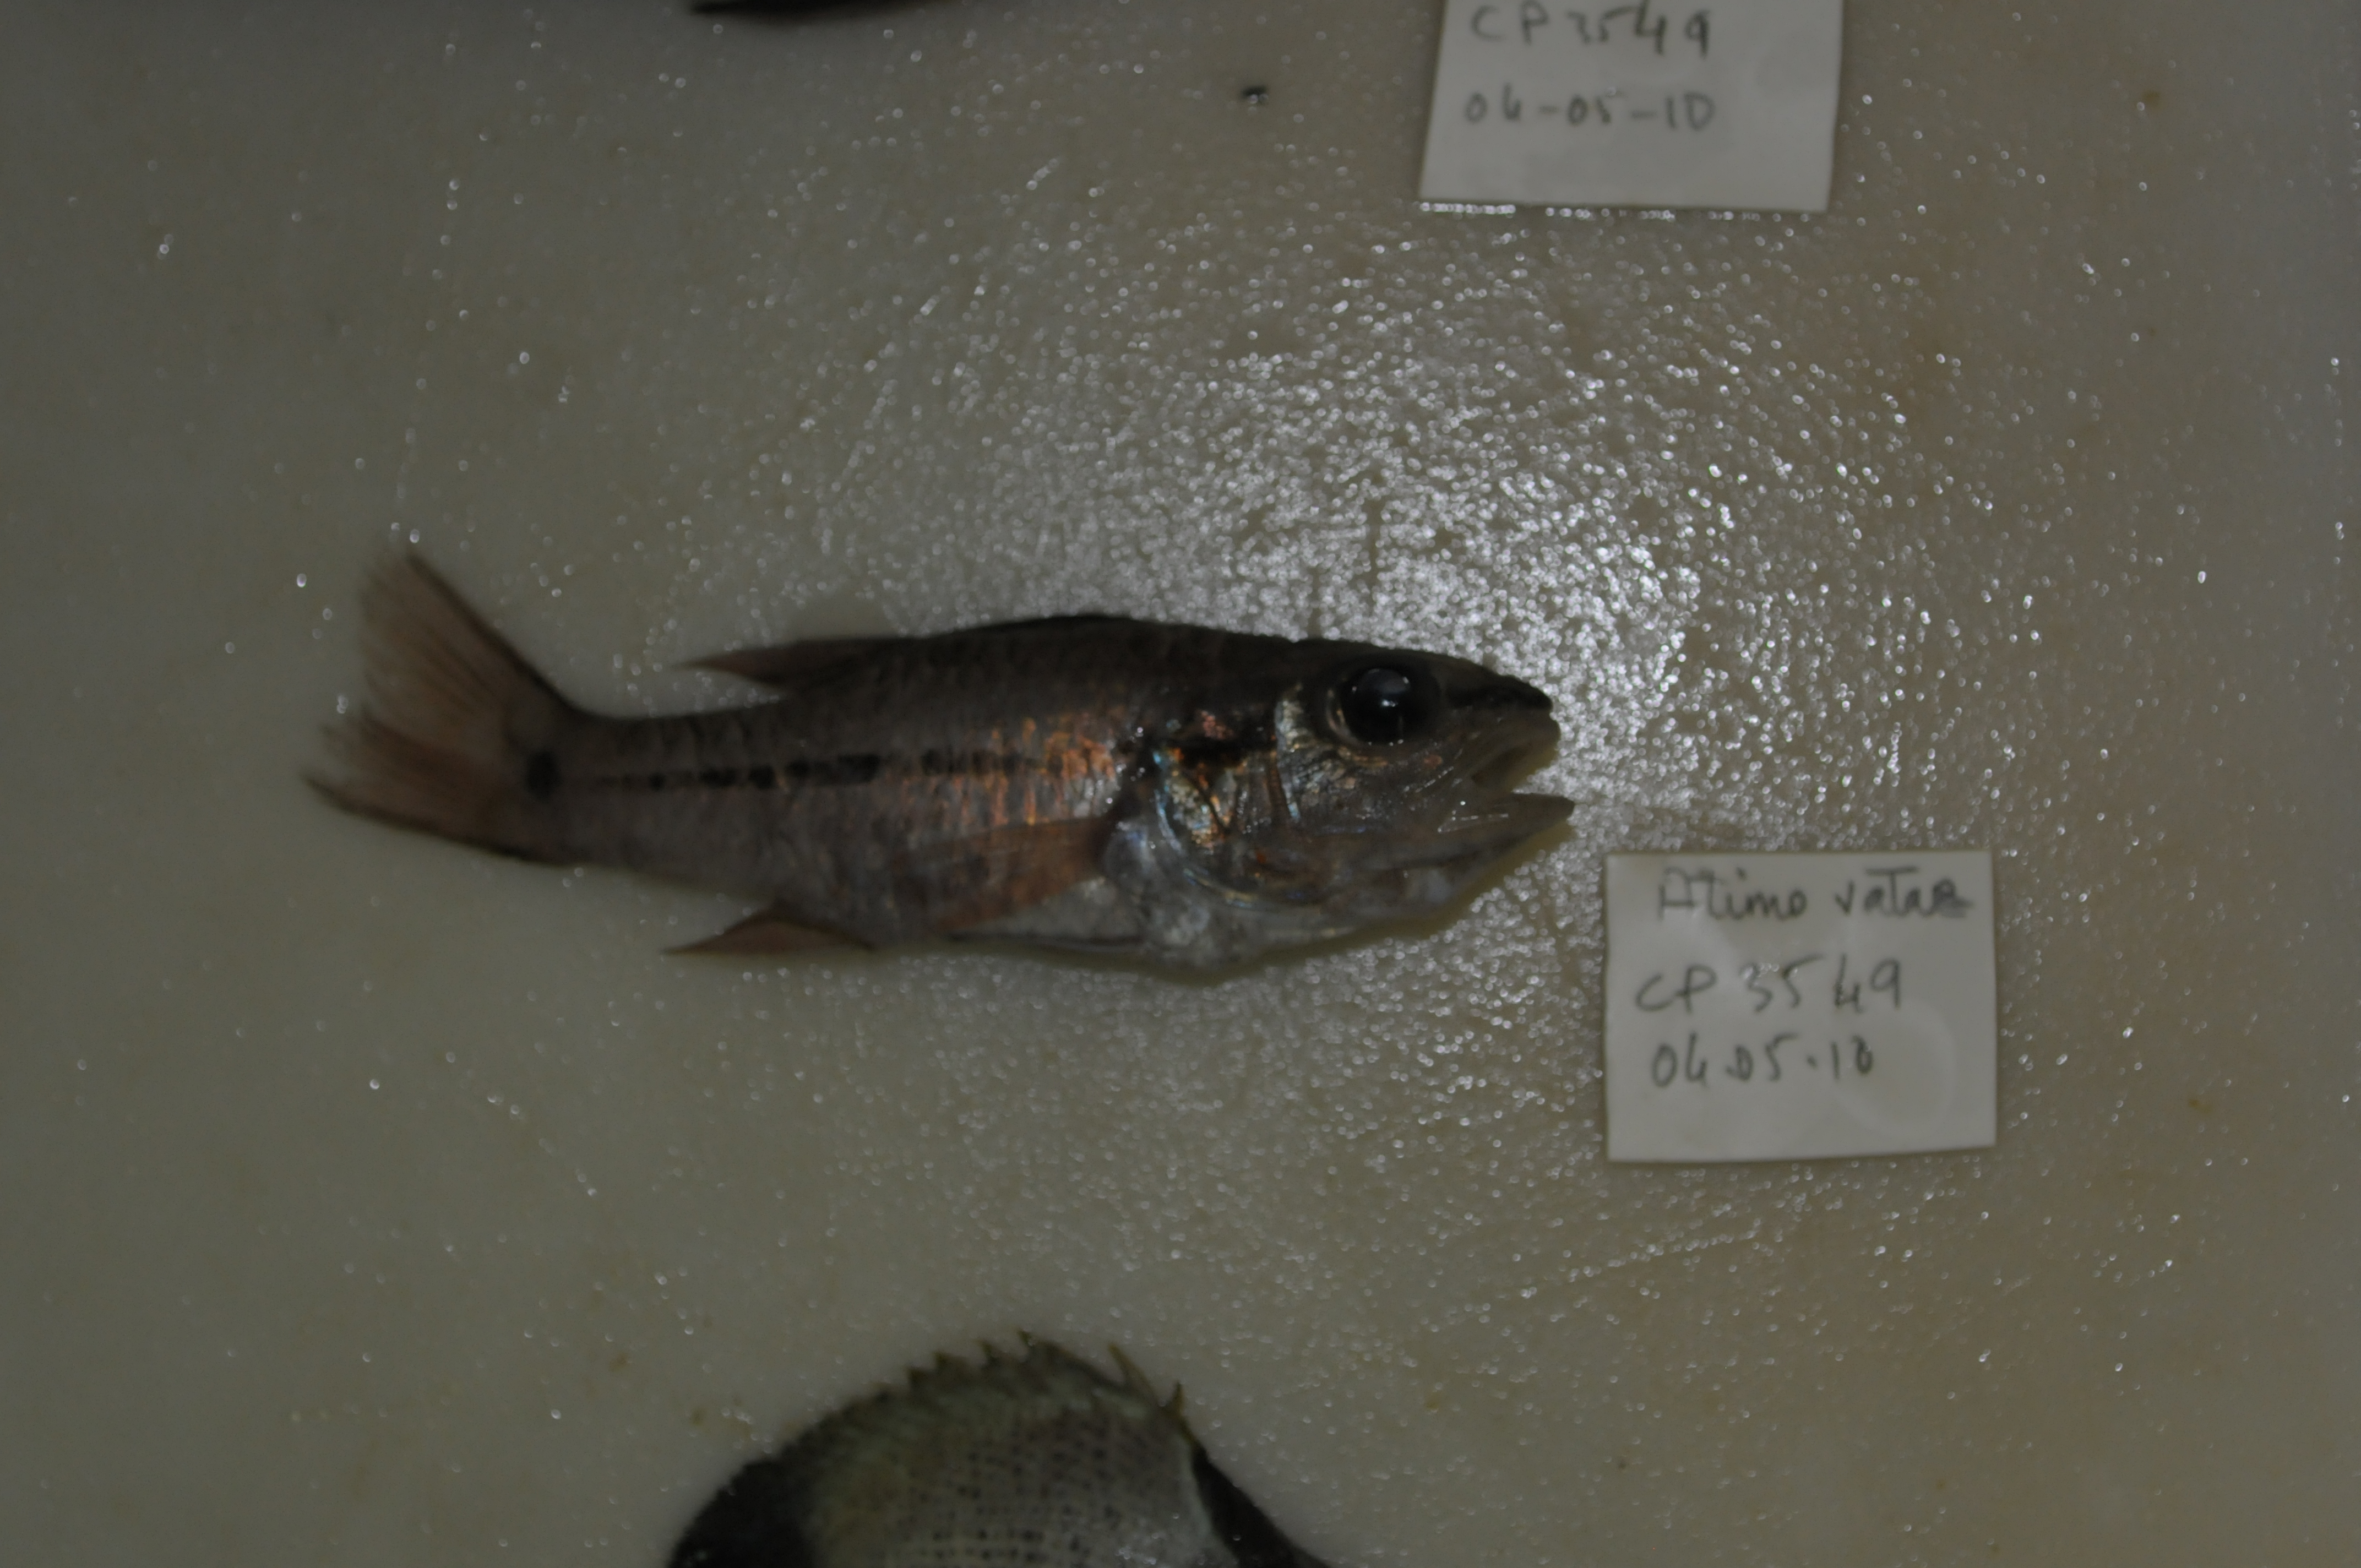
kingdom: Animalia
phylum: Chordata
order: Perciformes
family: Apogonidae
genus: Pristiapogon
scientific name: Pristiapogon fraenatus
